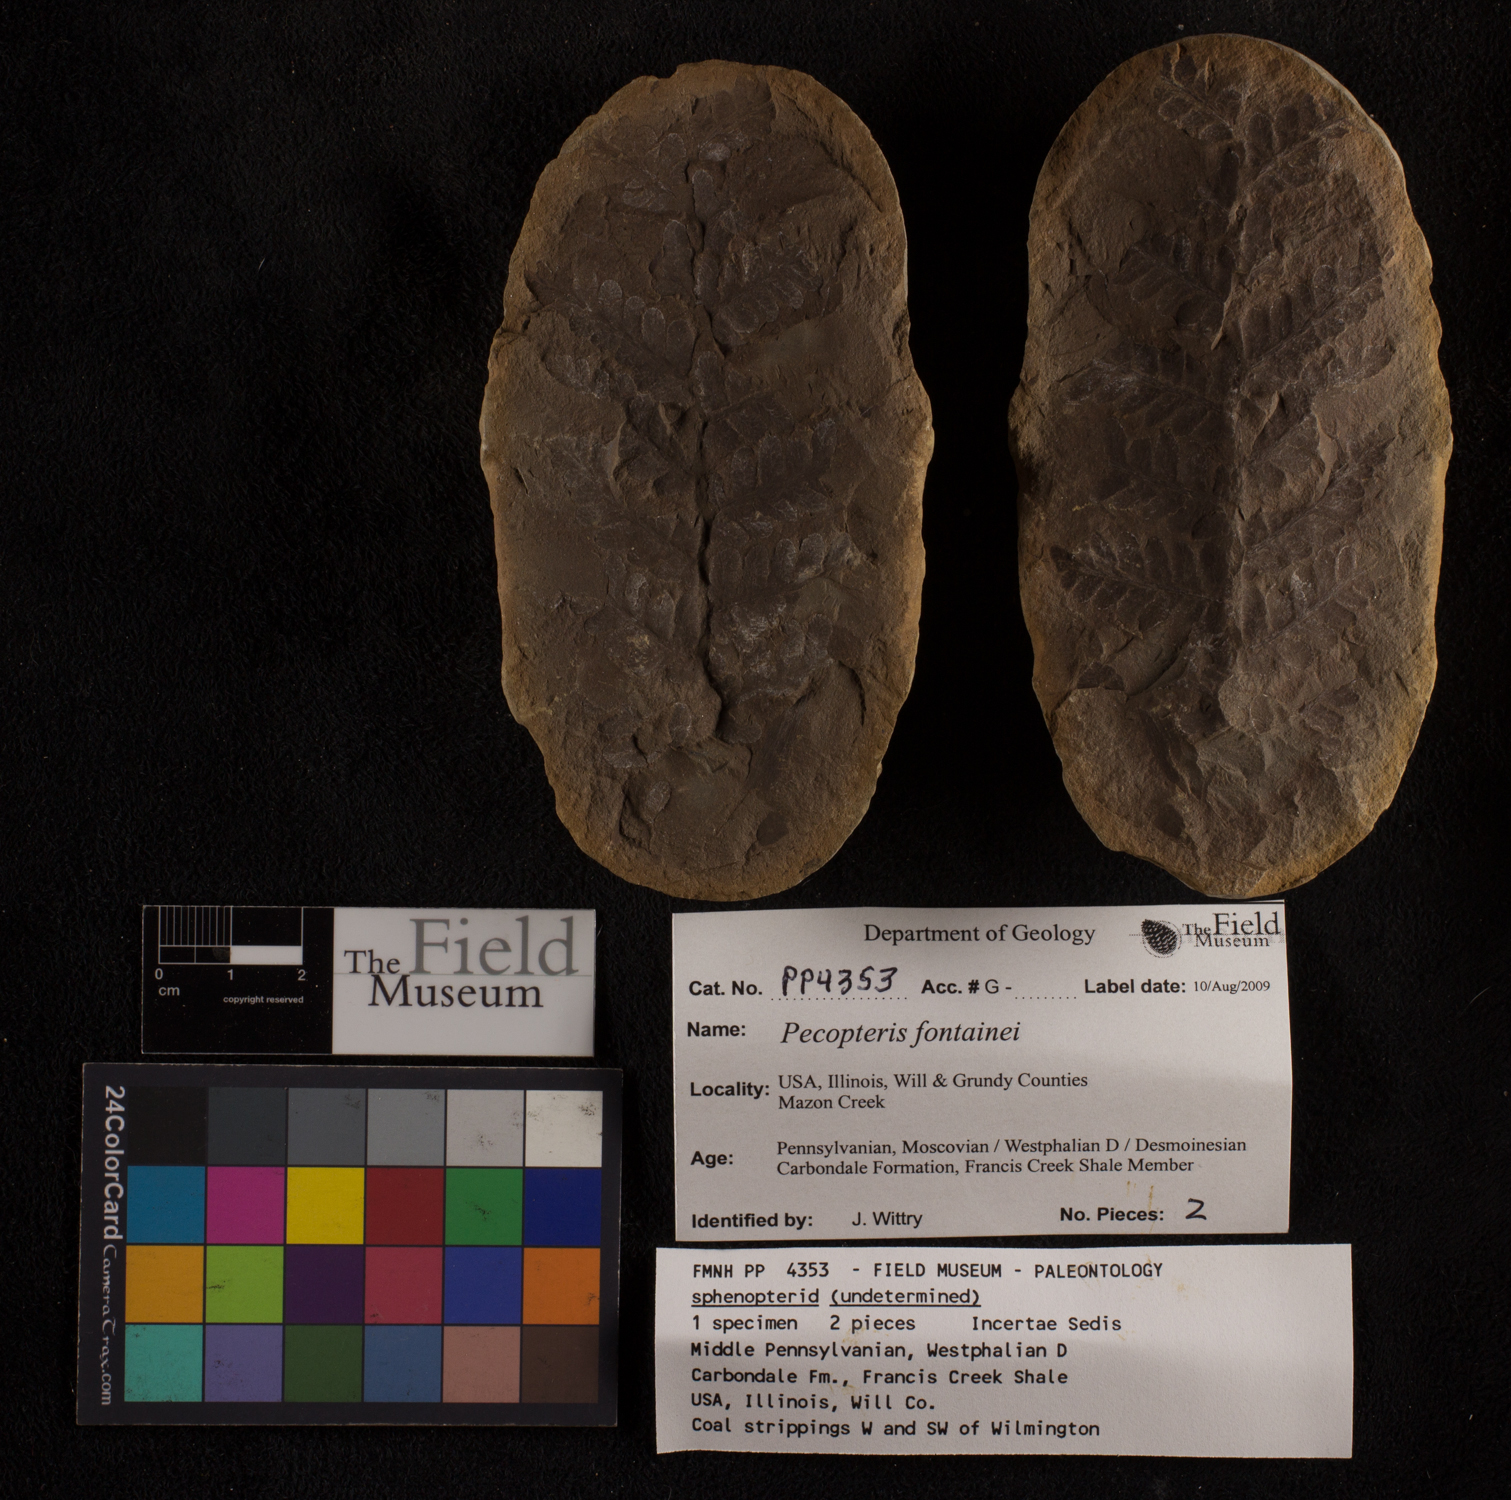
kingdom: Plantae
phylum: Tracheophyta
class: Polypodiopsida
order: Marattiales
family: Asterothecaceae
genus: Pecopteris
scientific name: Pecopteris
